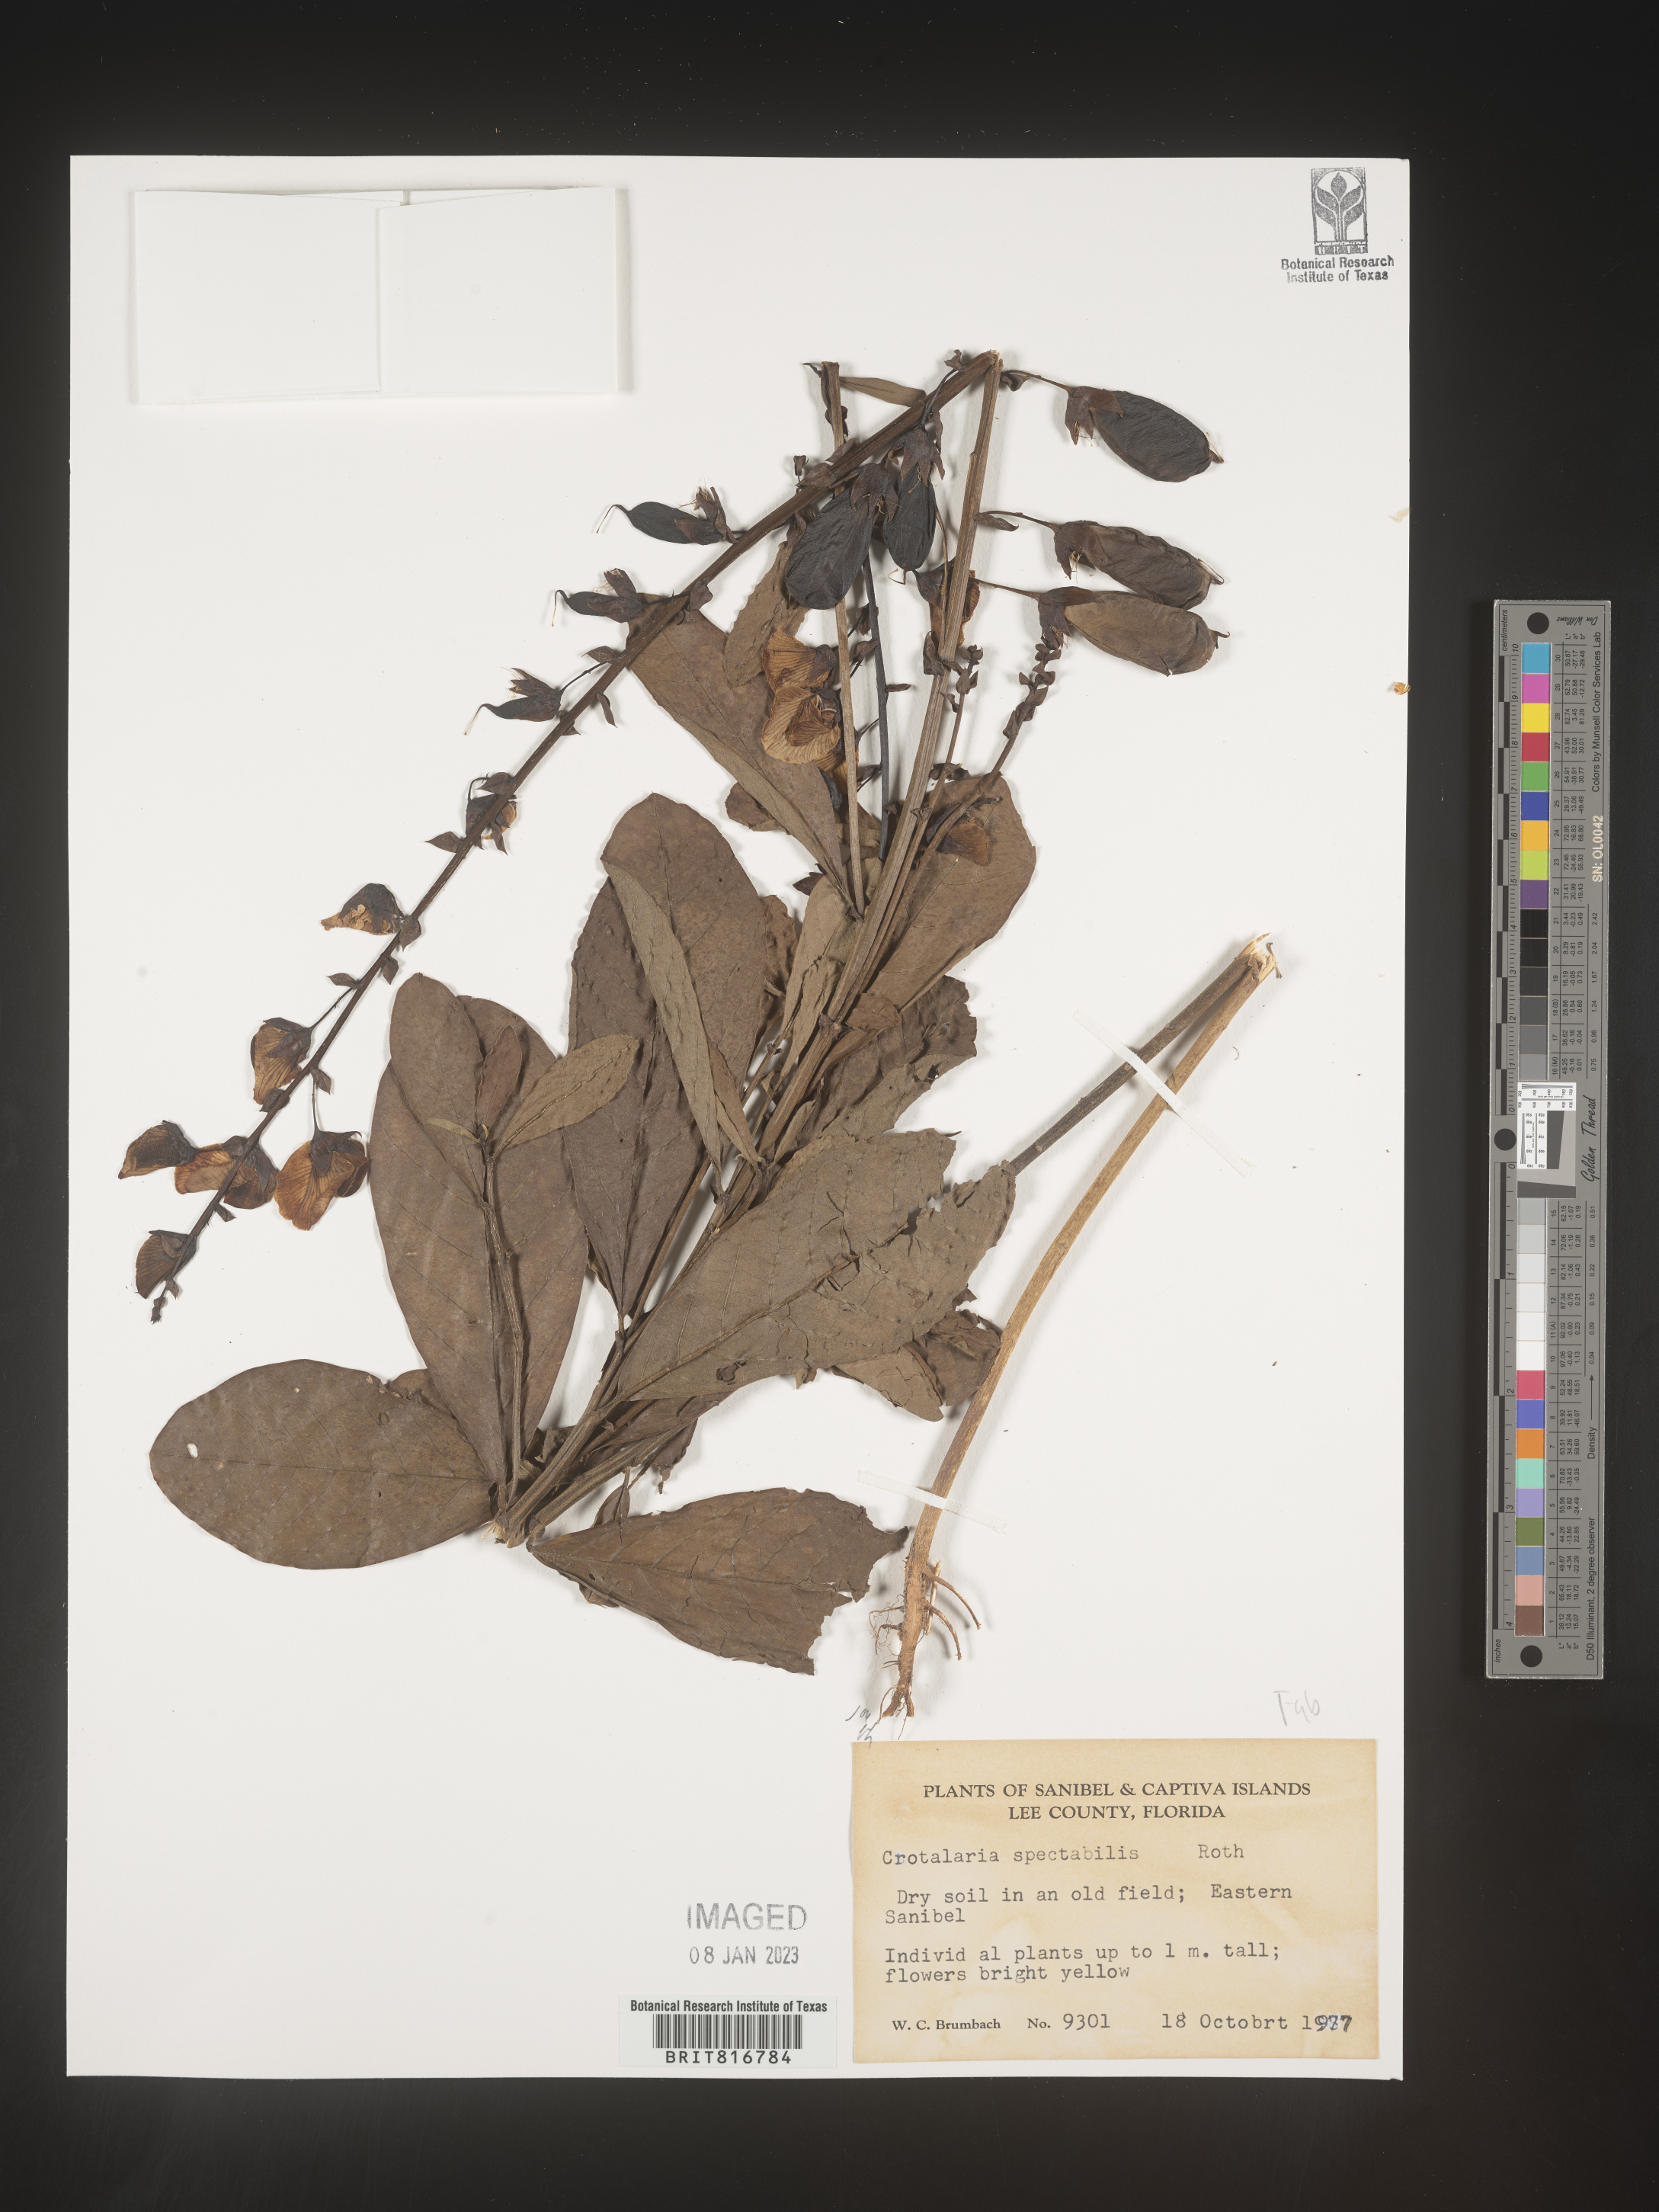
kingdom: Plantae
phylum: Tracheophyta
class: Magnoliopsida
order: Fabales
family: Fabaceae
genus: Crotalaria
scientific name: Crotalaria spectabilis
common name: Showy rattlebox
